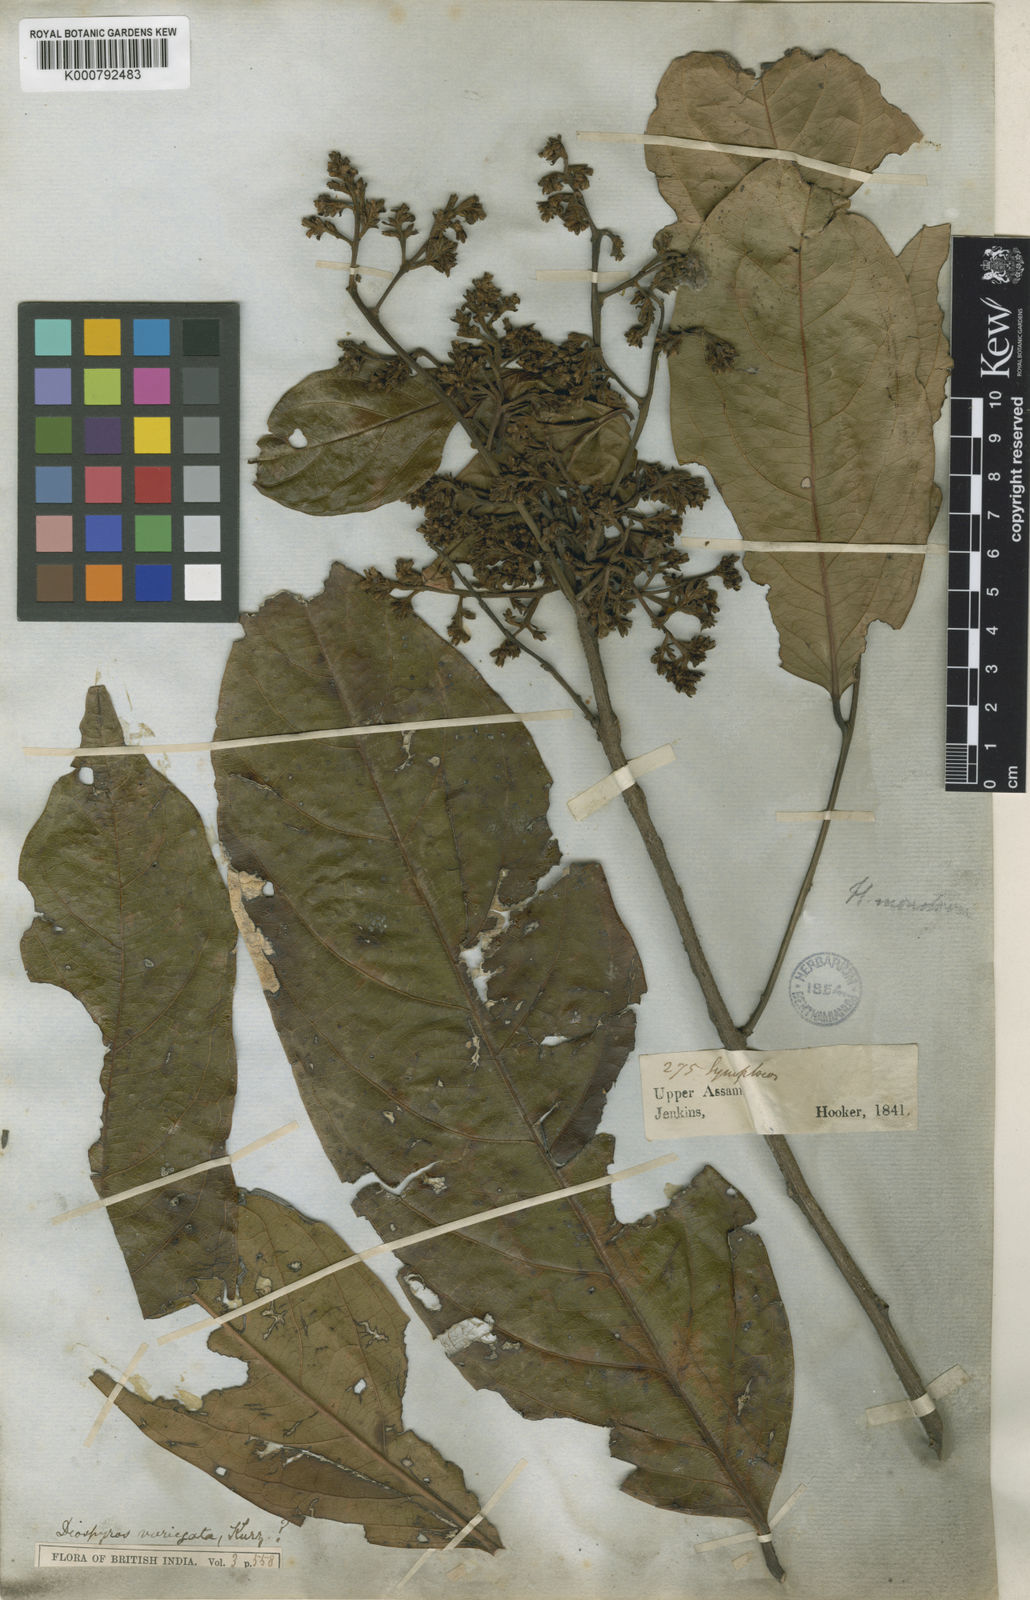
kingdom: Plantae
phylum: Tracheophyta
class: Magnoliopsida
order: Ericales
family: Ebenaceae
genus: Diospyros
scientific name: Diospyros variegata
